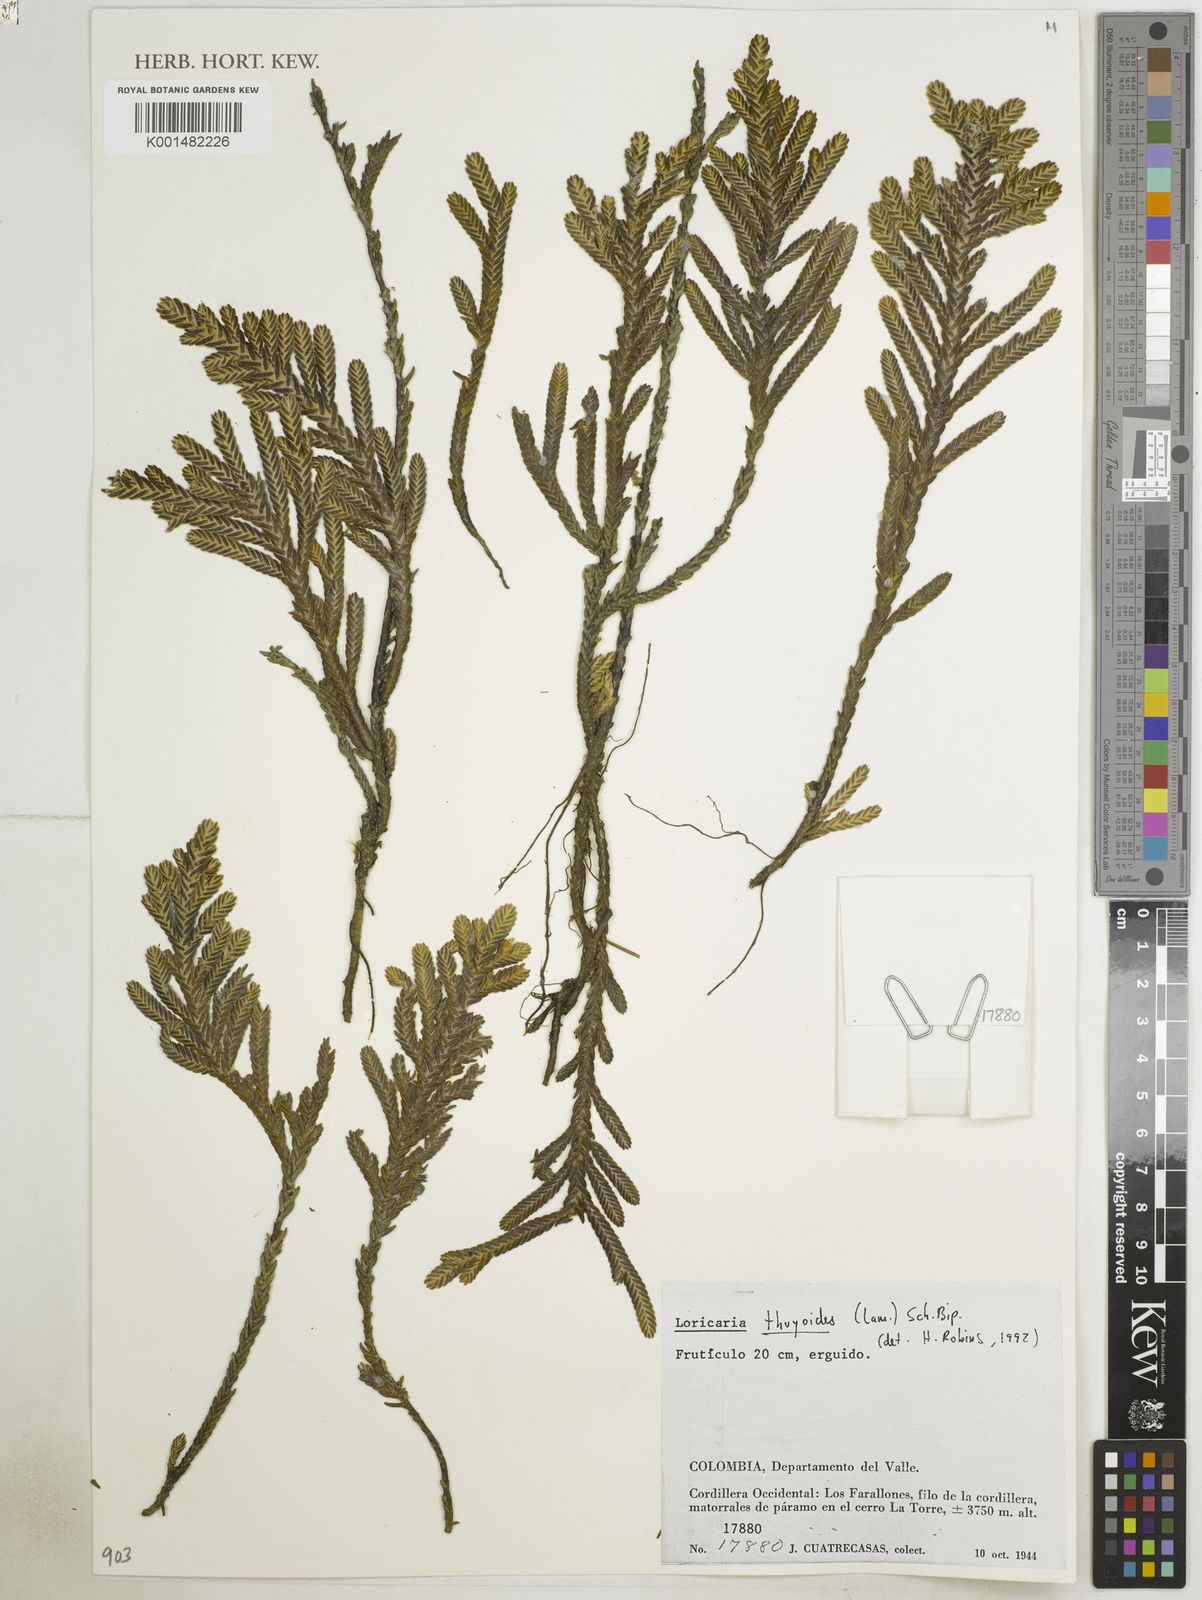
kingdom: Plantae
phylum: Tracheophyta
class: Magnoliopsida
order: Asterales
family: Asteraceae
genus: Andicolea
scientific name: Andicolea thuyoides
